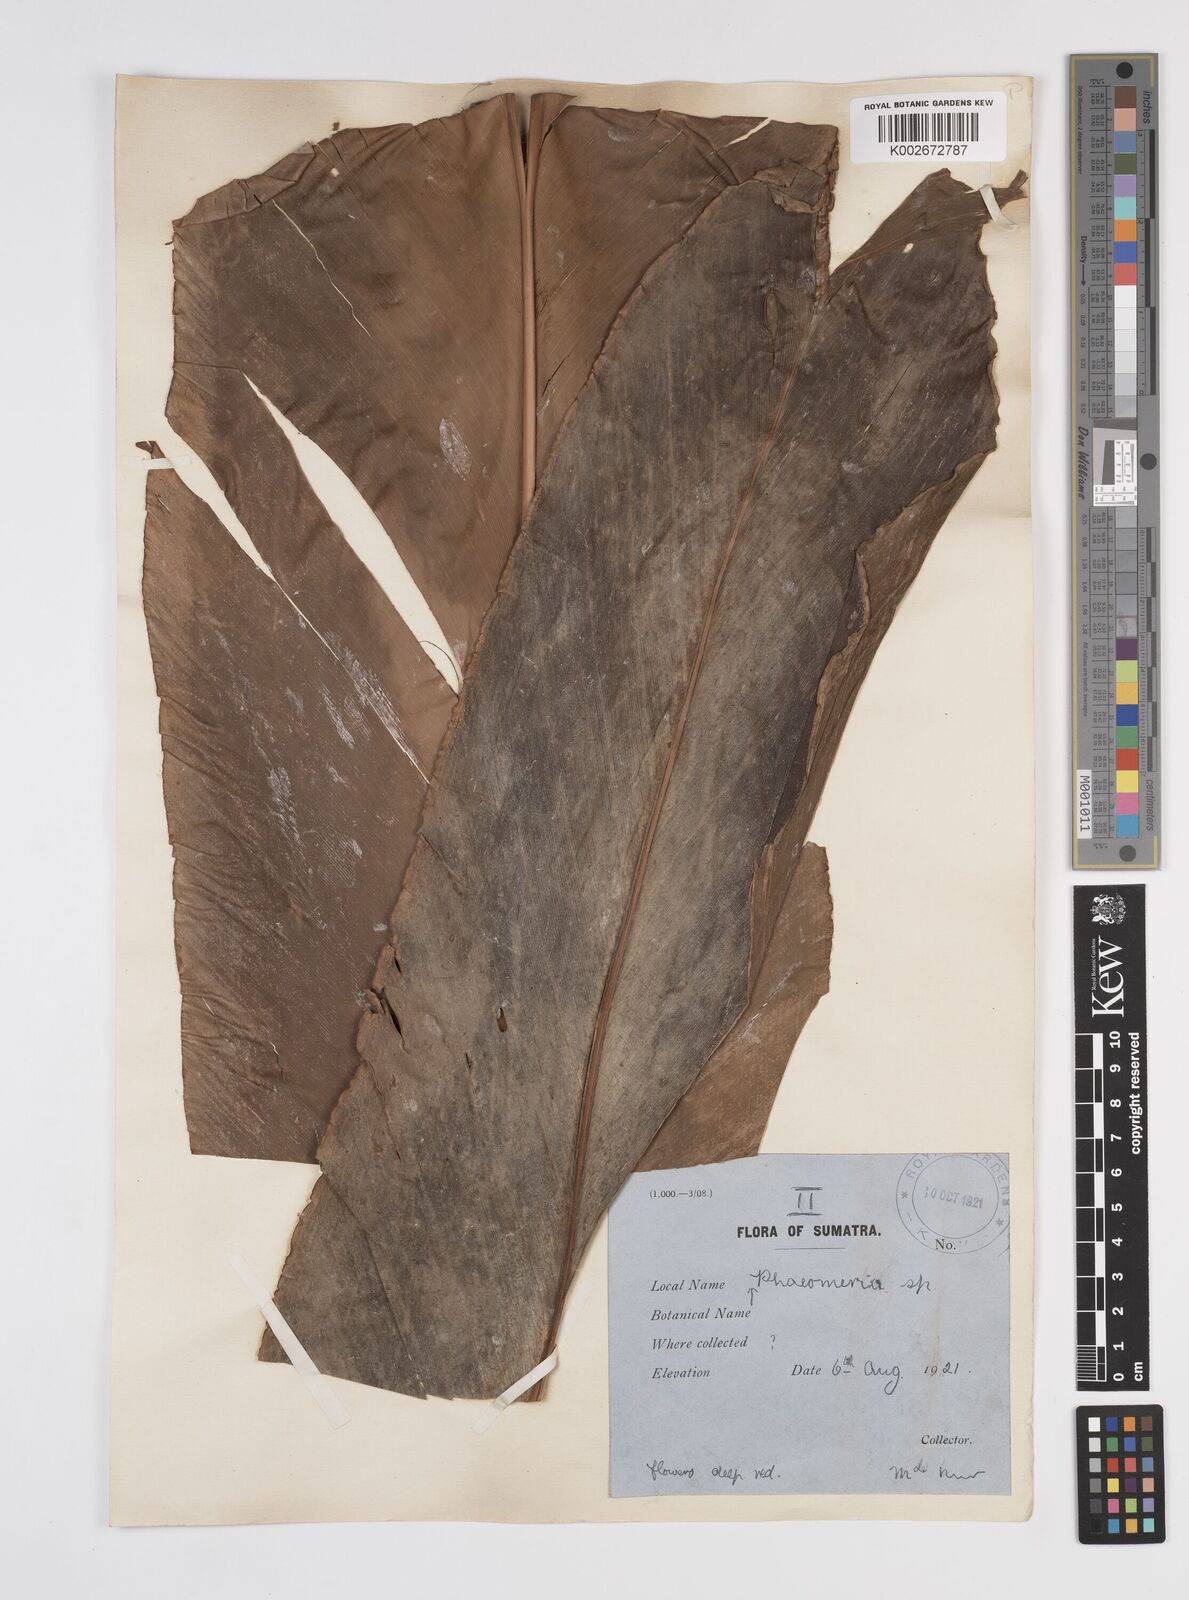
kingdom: Plantae
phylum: Tracheophyta
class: Liliopsida
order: Zingiberales
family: Zingiberaceae
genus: Etlingera
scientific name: Etlingera pyramidosphaera
